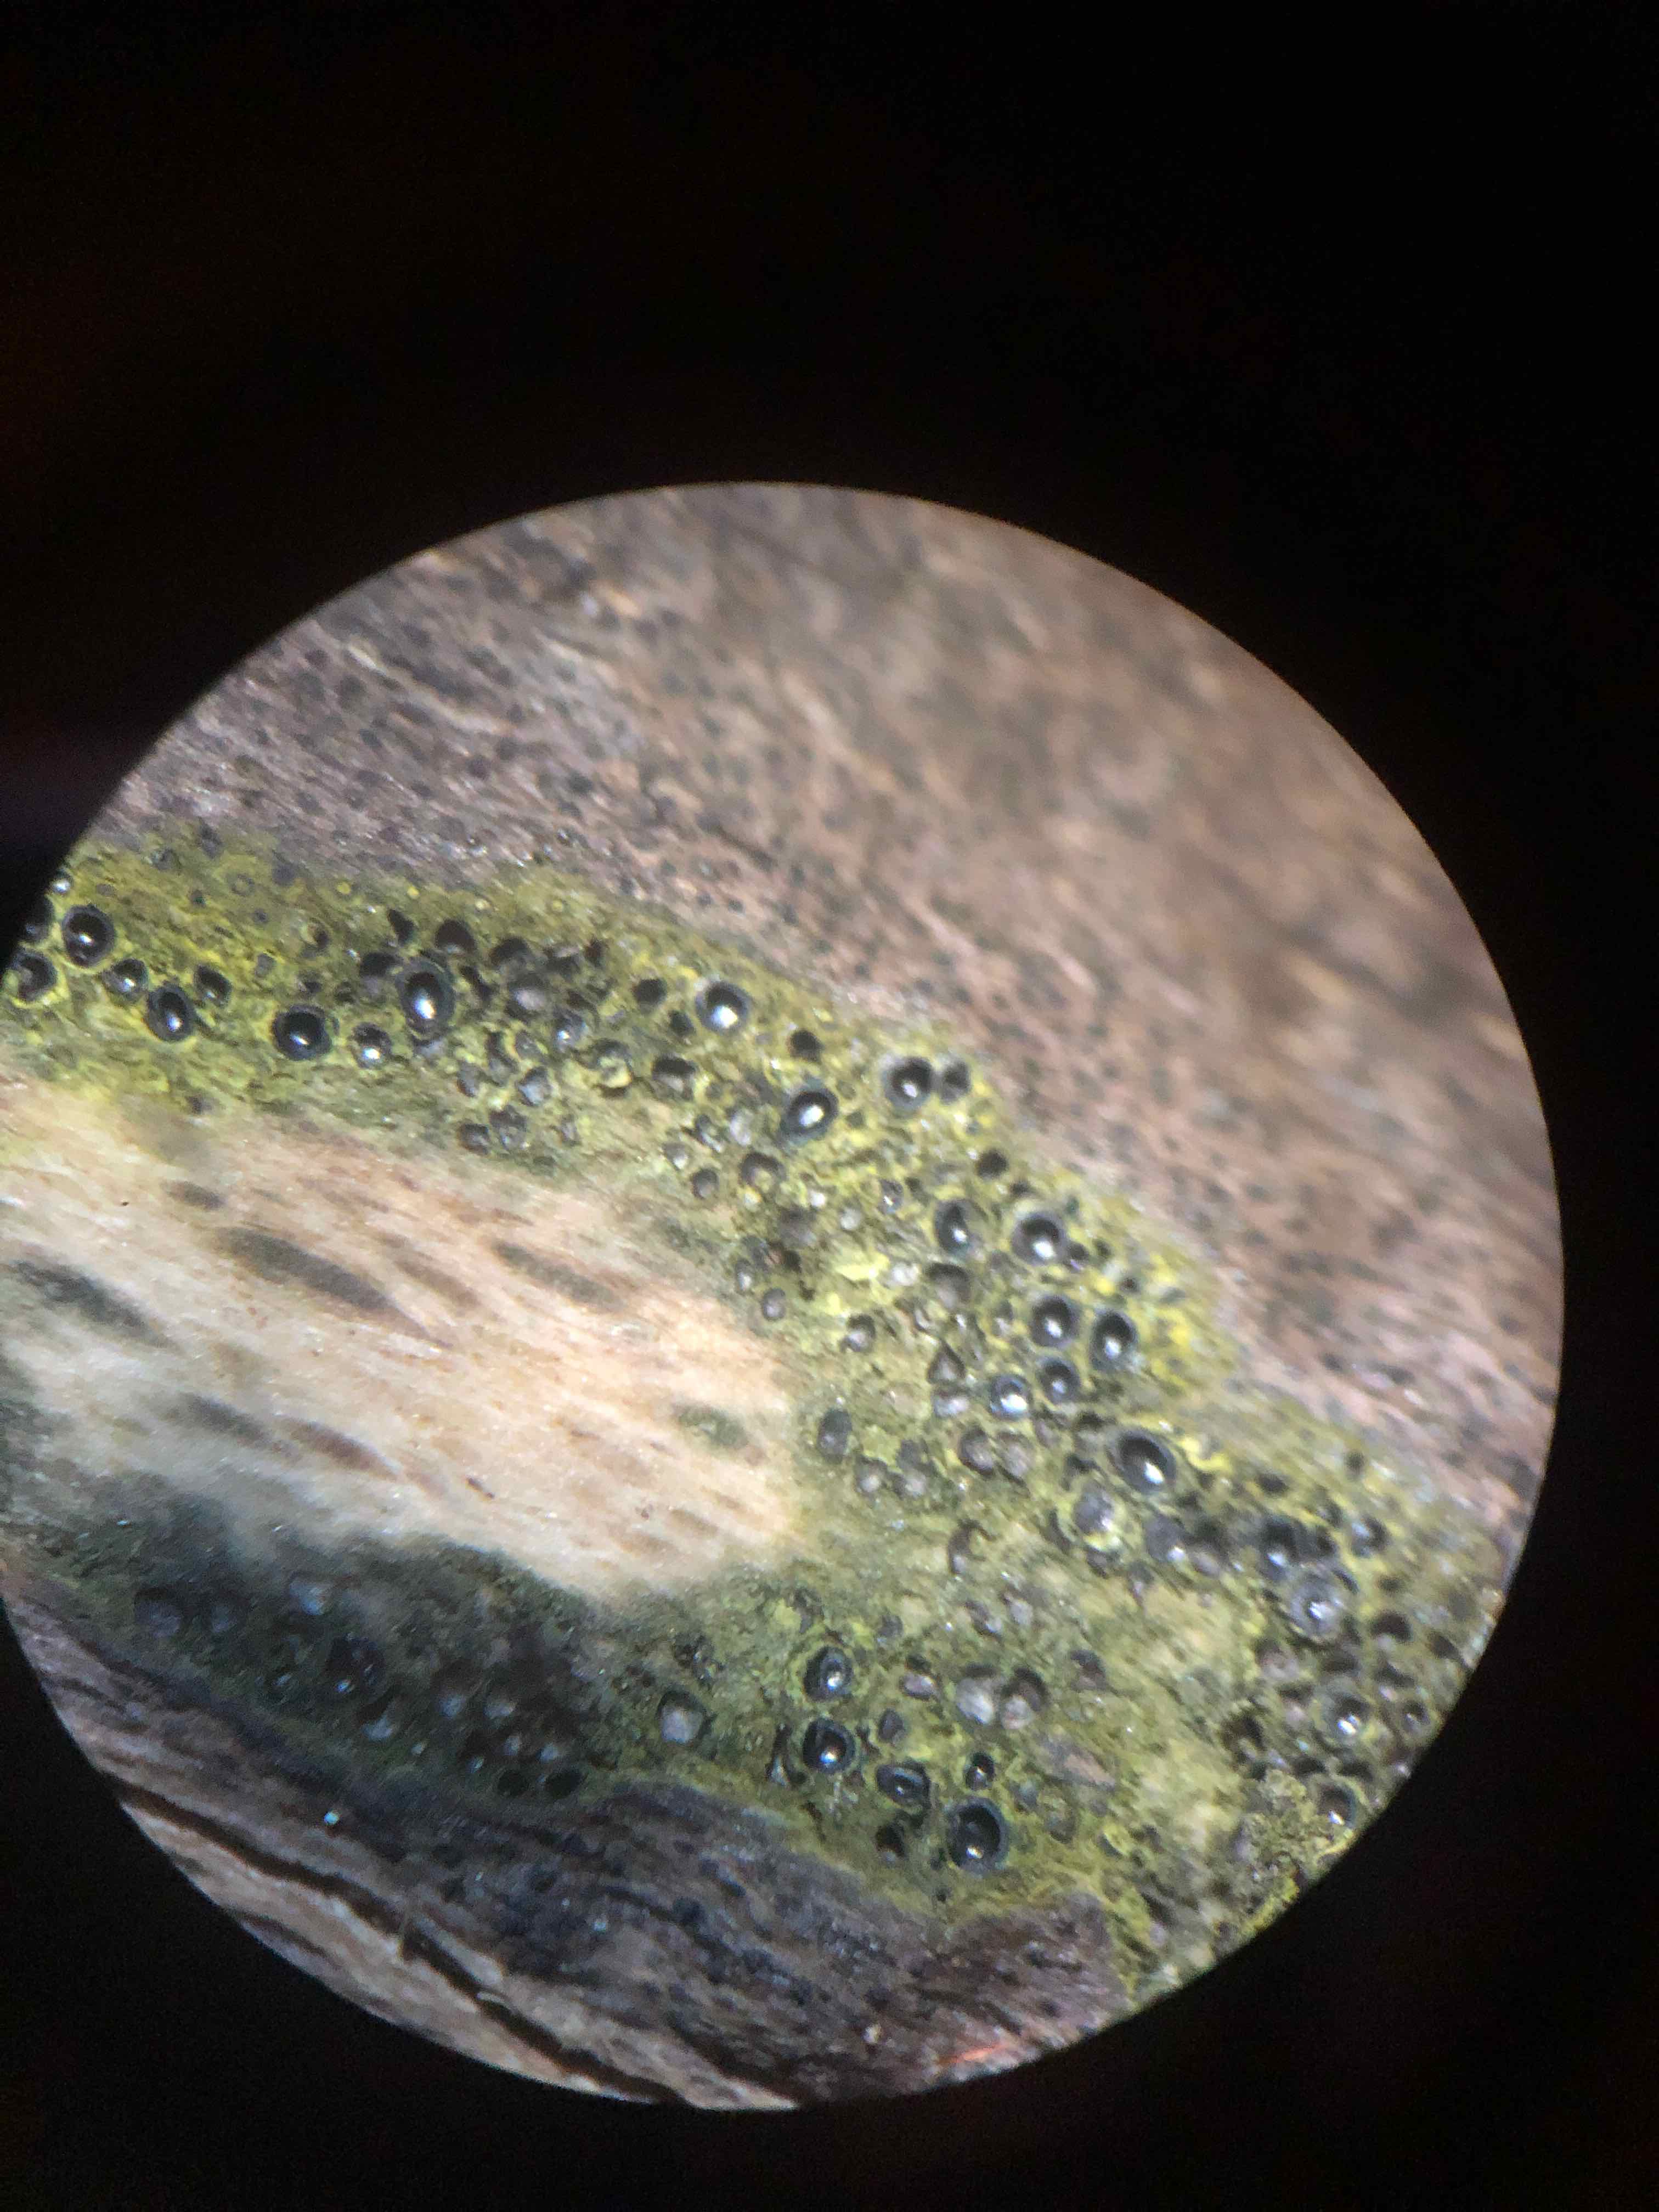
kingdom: Fungi
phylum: Ascomycota
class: Sordariomycetes
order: Xylariales
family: Diatrypaceae
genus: Eutypa
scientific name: Eutypa flavovirens
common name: grønkødet kulskorpe
